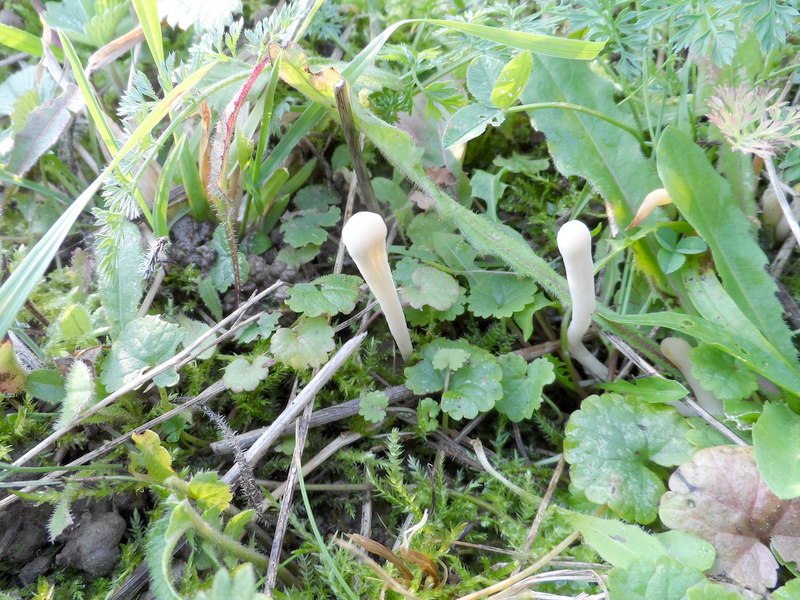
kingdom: Fungi
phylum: Basidiomycota
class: Agaricomycetes
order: Agaricales
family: Clavariaceae
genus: Clavaria
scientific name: Clavaria fragilis
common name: White spindles
